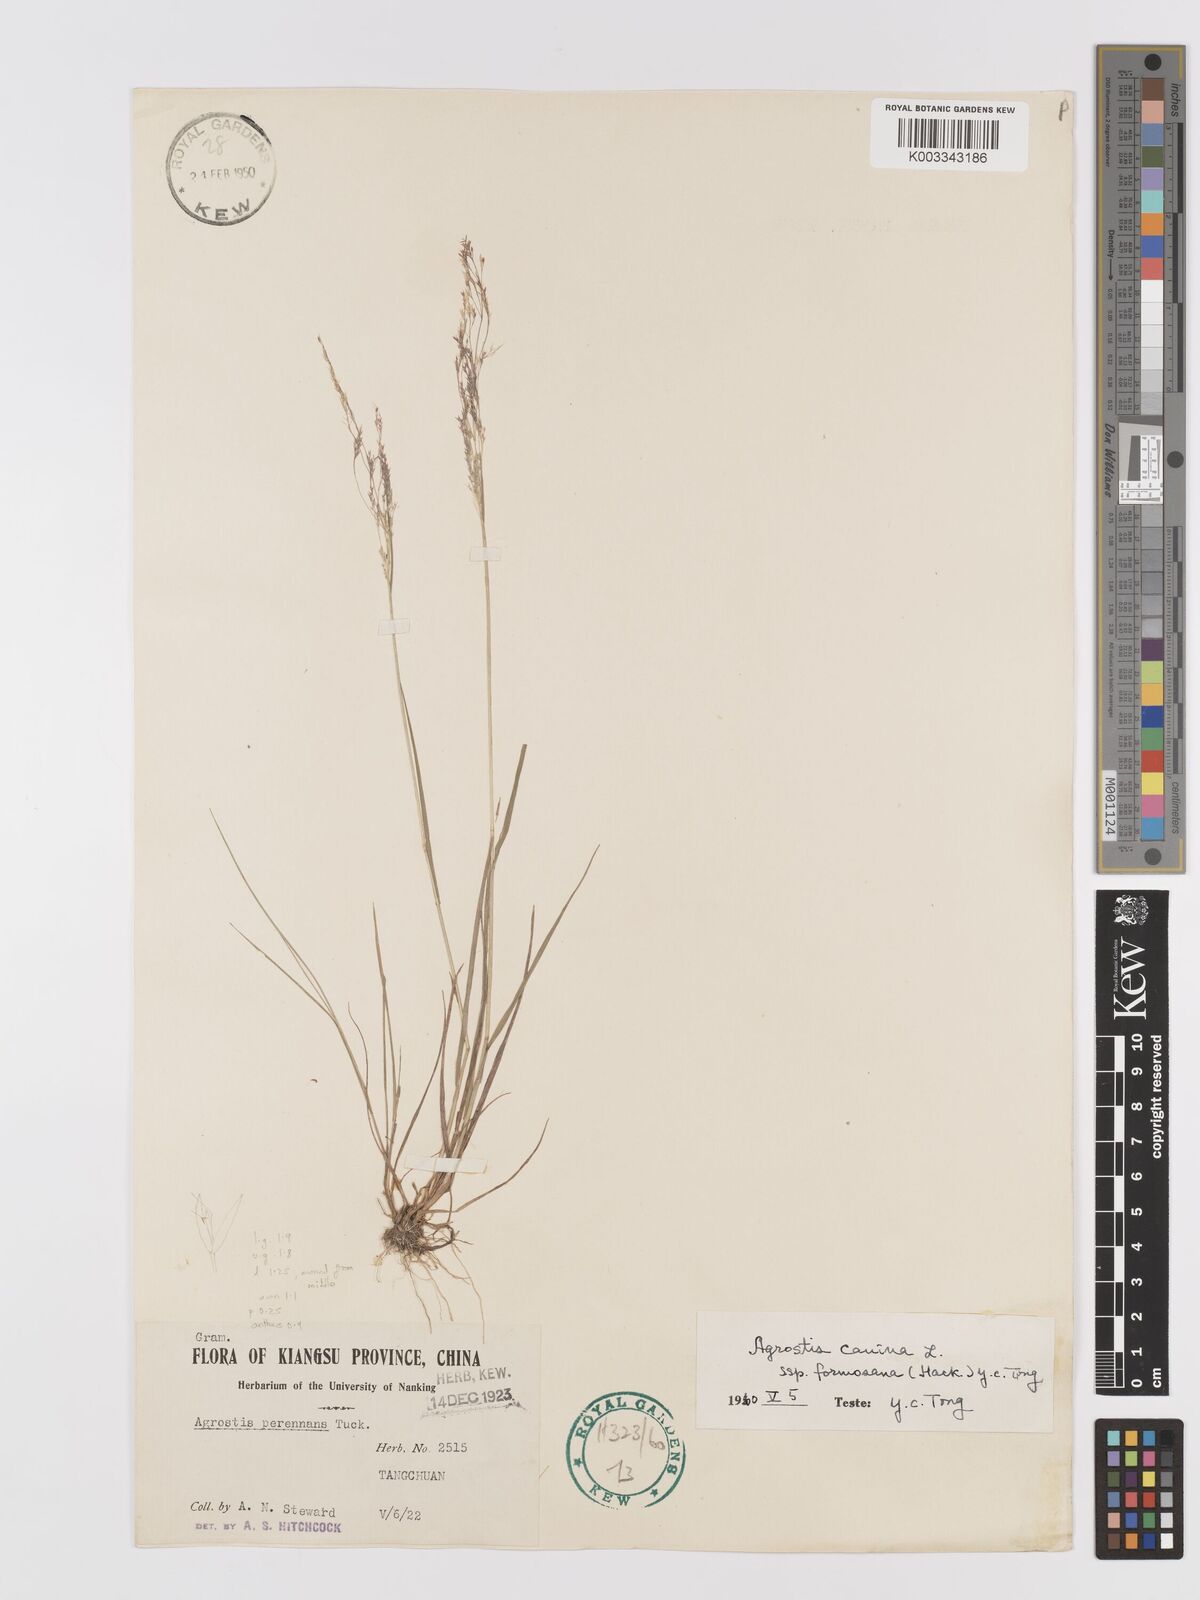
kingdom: Plantae
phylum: Tracheophyta
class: Liliopsida
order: Poales
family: Poaceae
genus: Agrostis
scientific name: Agrostis infirma
